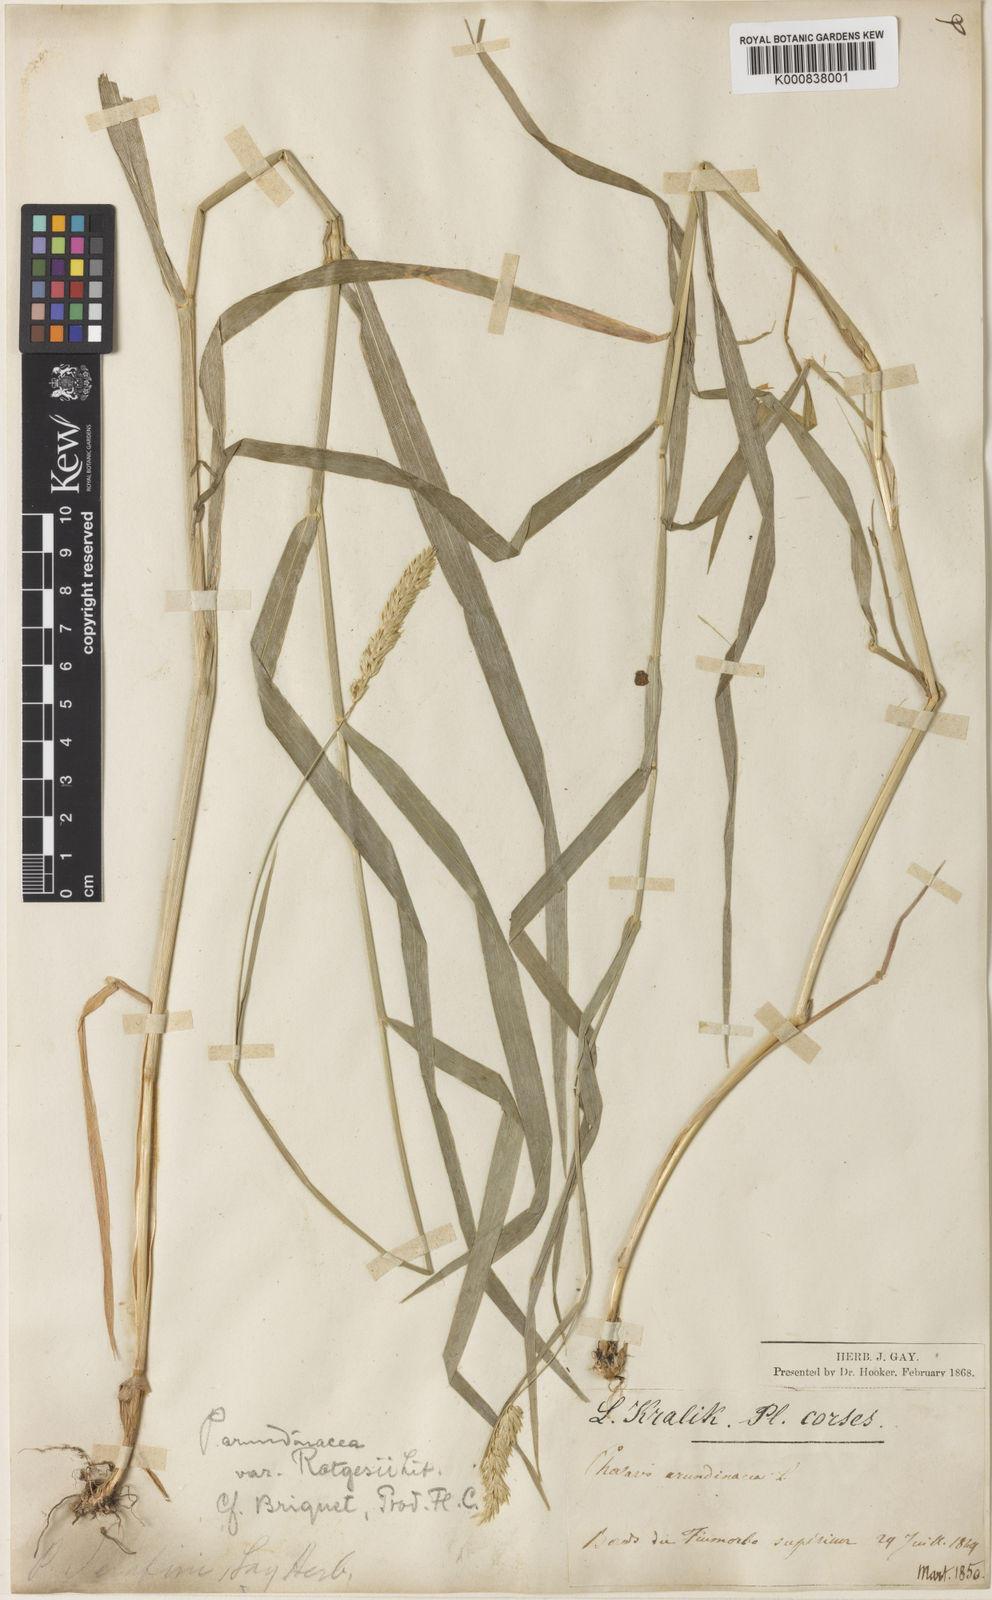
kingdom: Plantae
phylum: Tracheophyta
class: Liliopsida
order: Poales
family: Poaceae
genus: Phalaris
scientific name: Phalaris arundinacea
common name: Reed canary-grass
